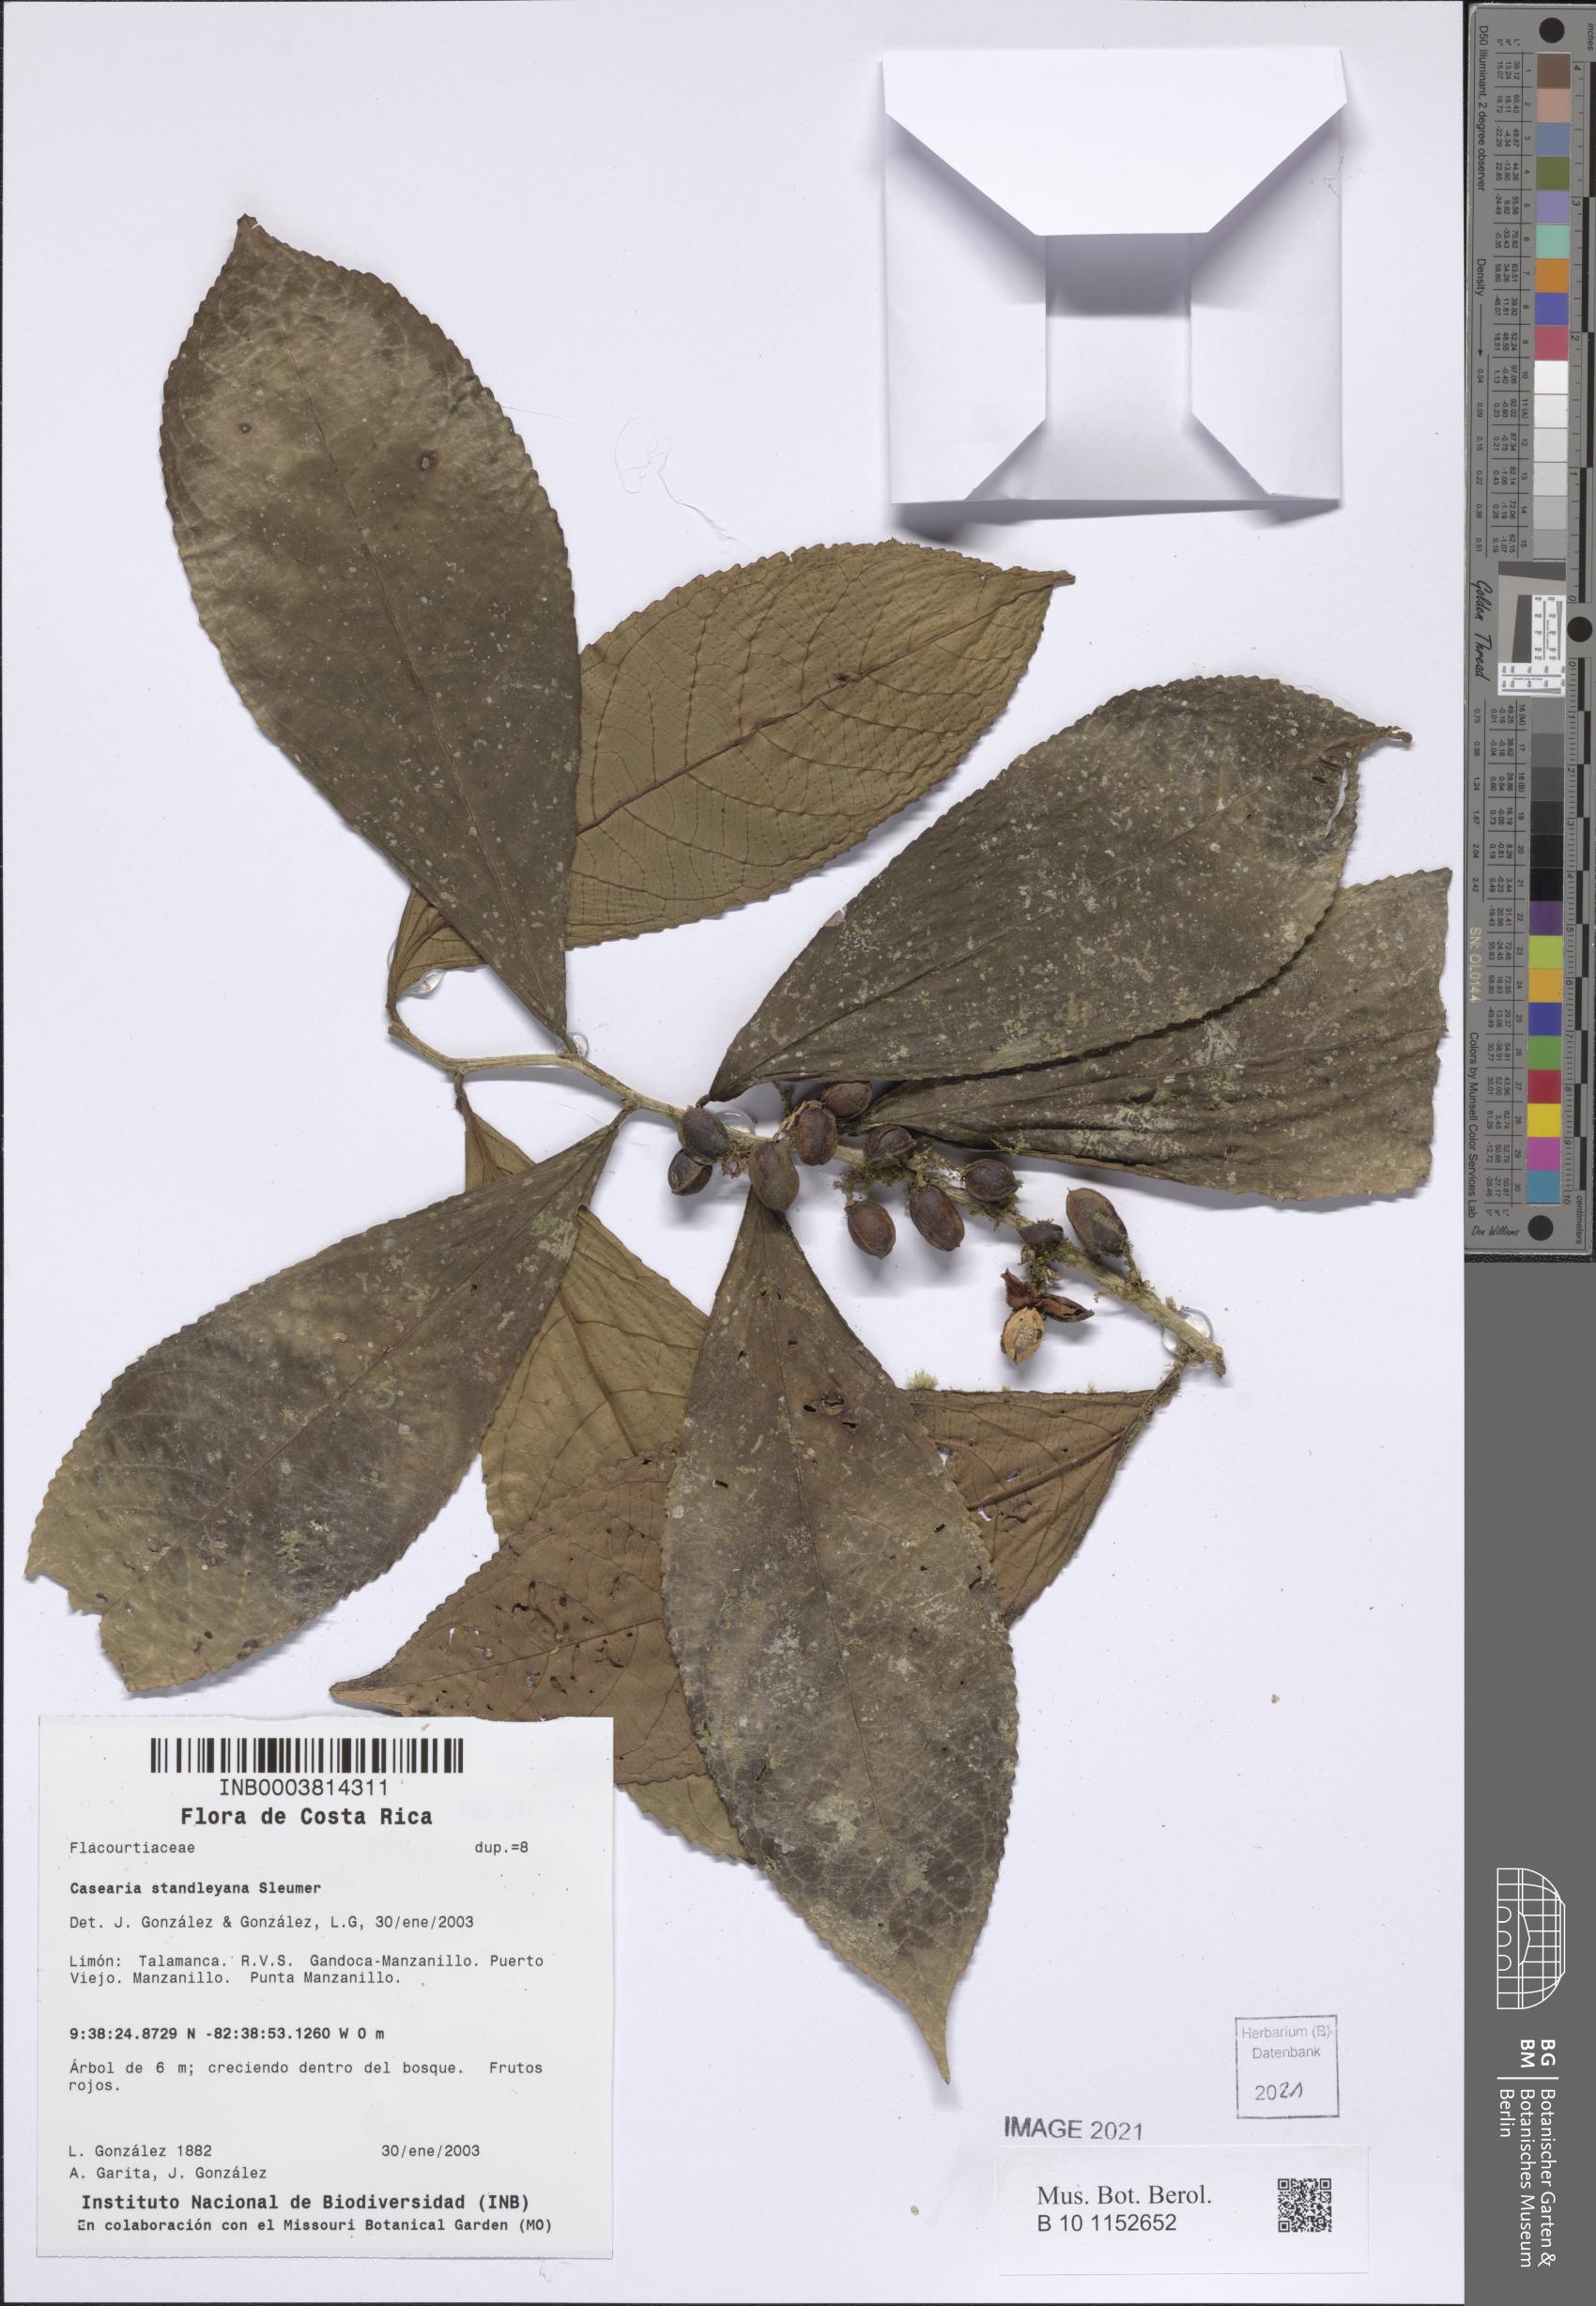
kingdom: Plantae
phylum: Tracheophyta
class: Magnoliopsida
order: Malpighiales
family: Salicaceae
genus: Casearia
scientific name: Casearia
